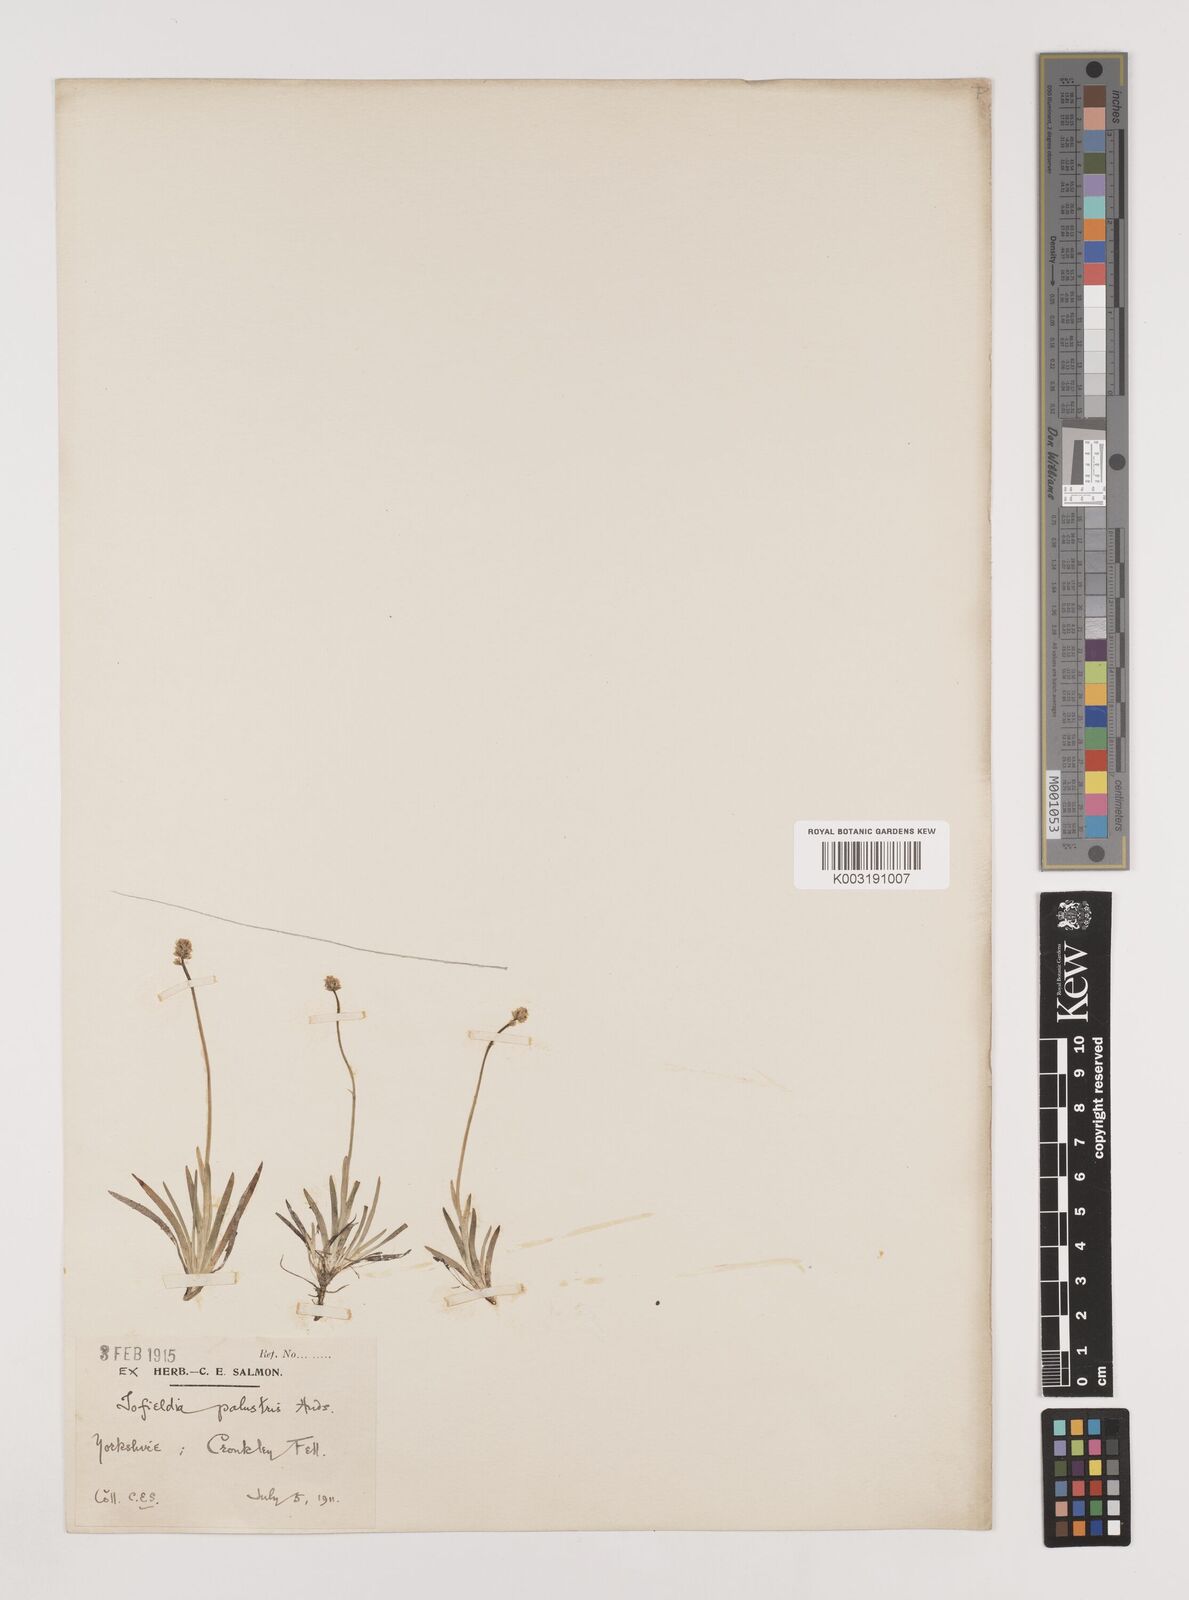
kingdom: Plantae
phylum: Tracheophyta
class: Liliopsida
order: Alismatales
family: Tofieldiaceae
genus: Tofieldia
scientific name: Tofieldia pusilla
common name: Scottish false asphodel
